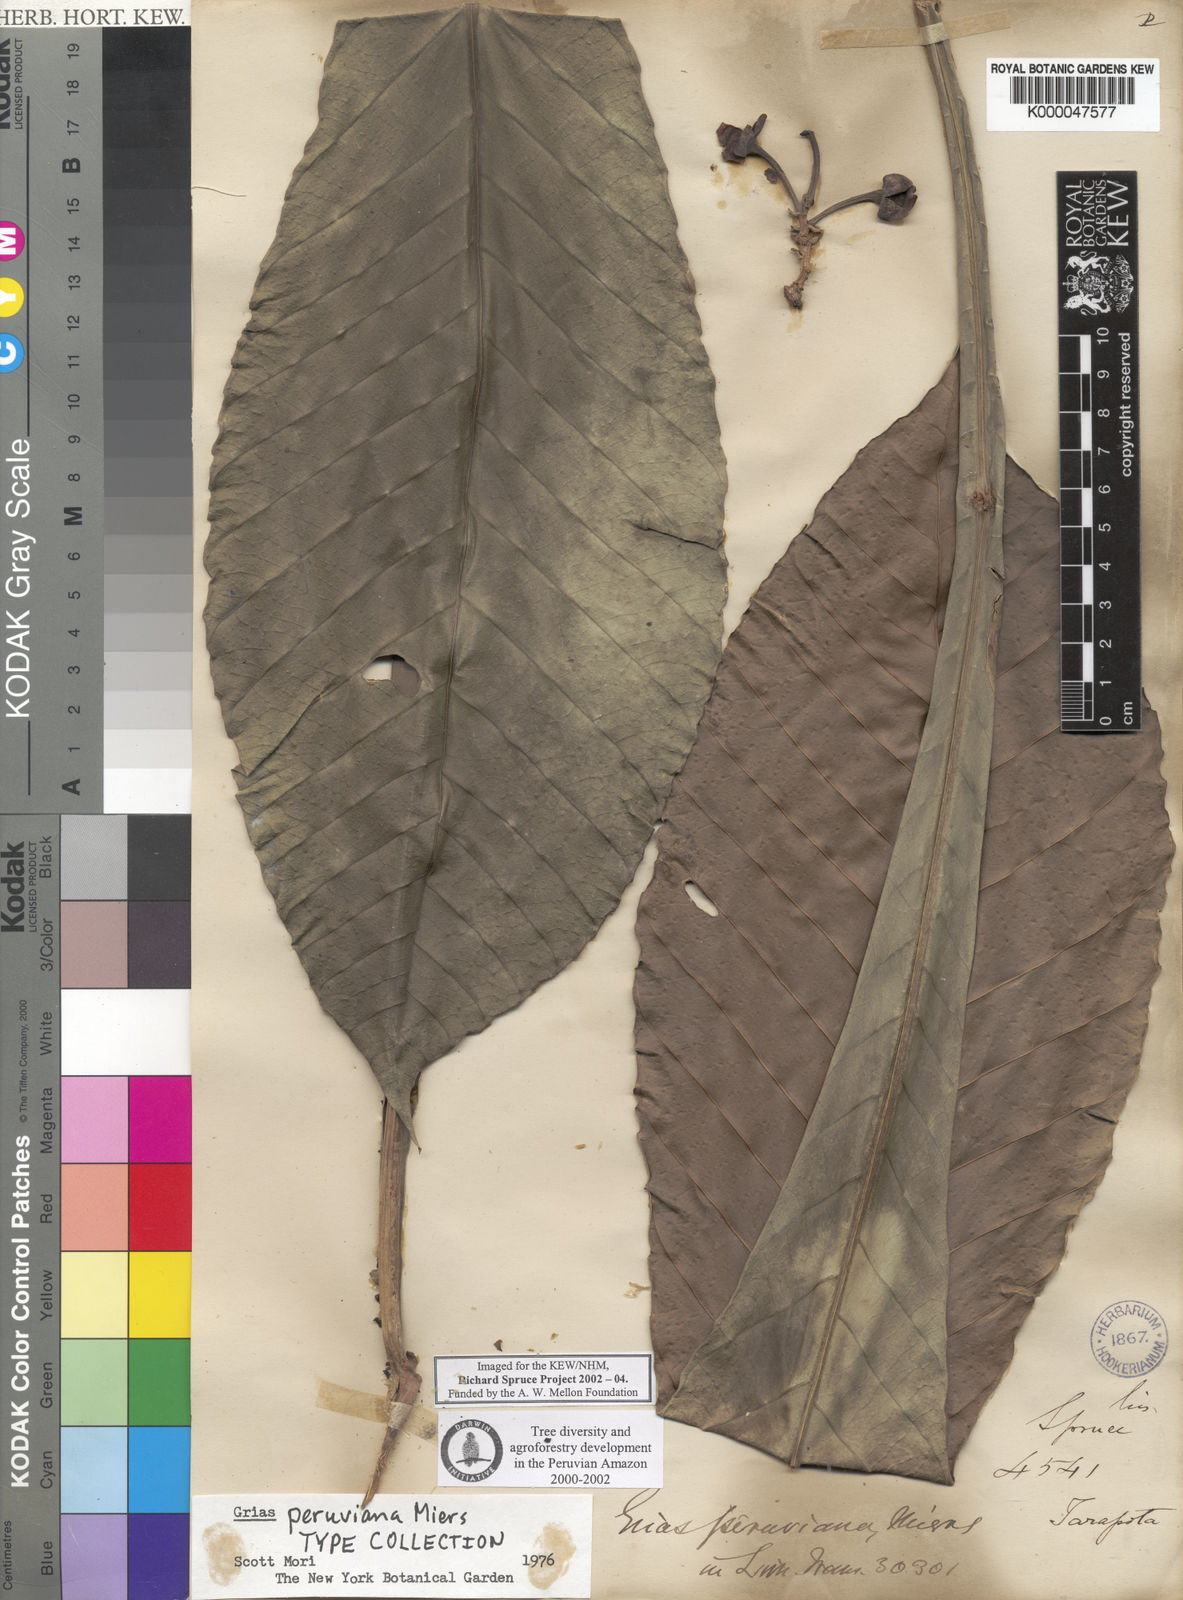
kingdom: Plantae
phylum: Tracheophyta
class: Magnoliopsida
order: Ericales
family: Lecythidaceae
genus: Grias
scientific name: Grias peruviana
